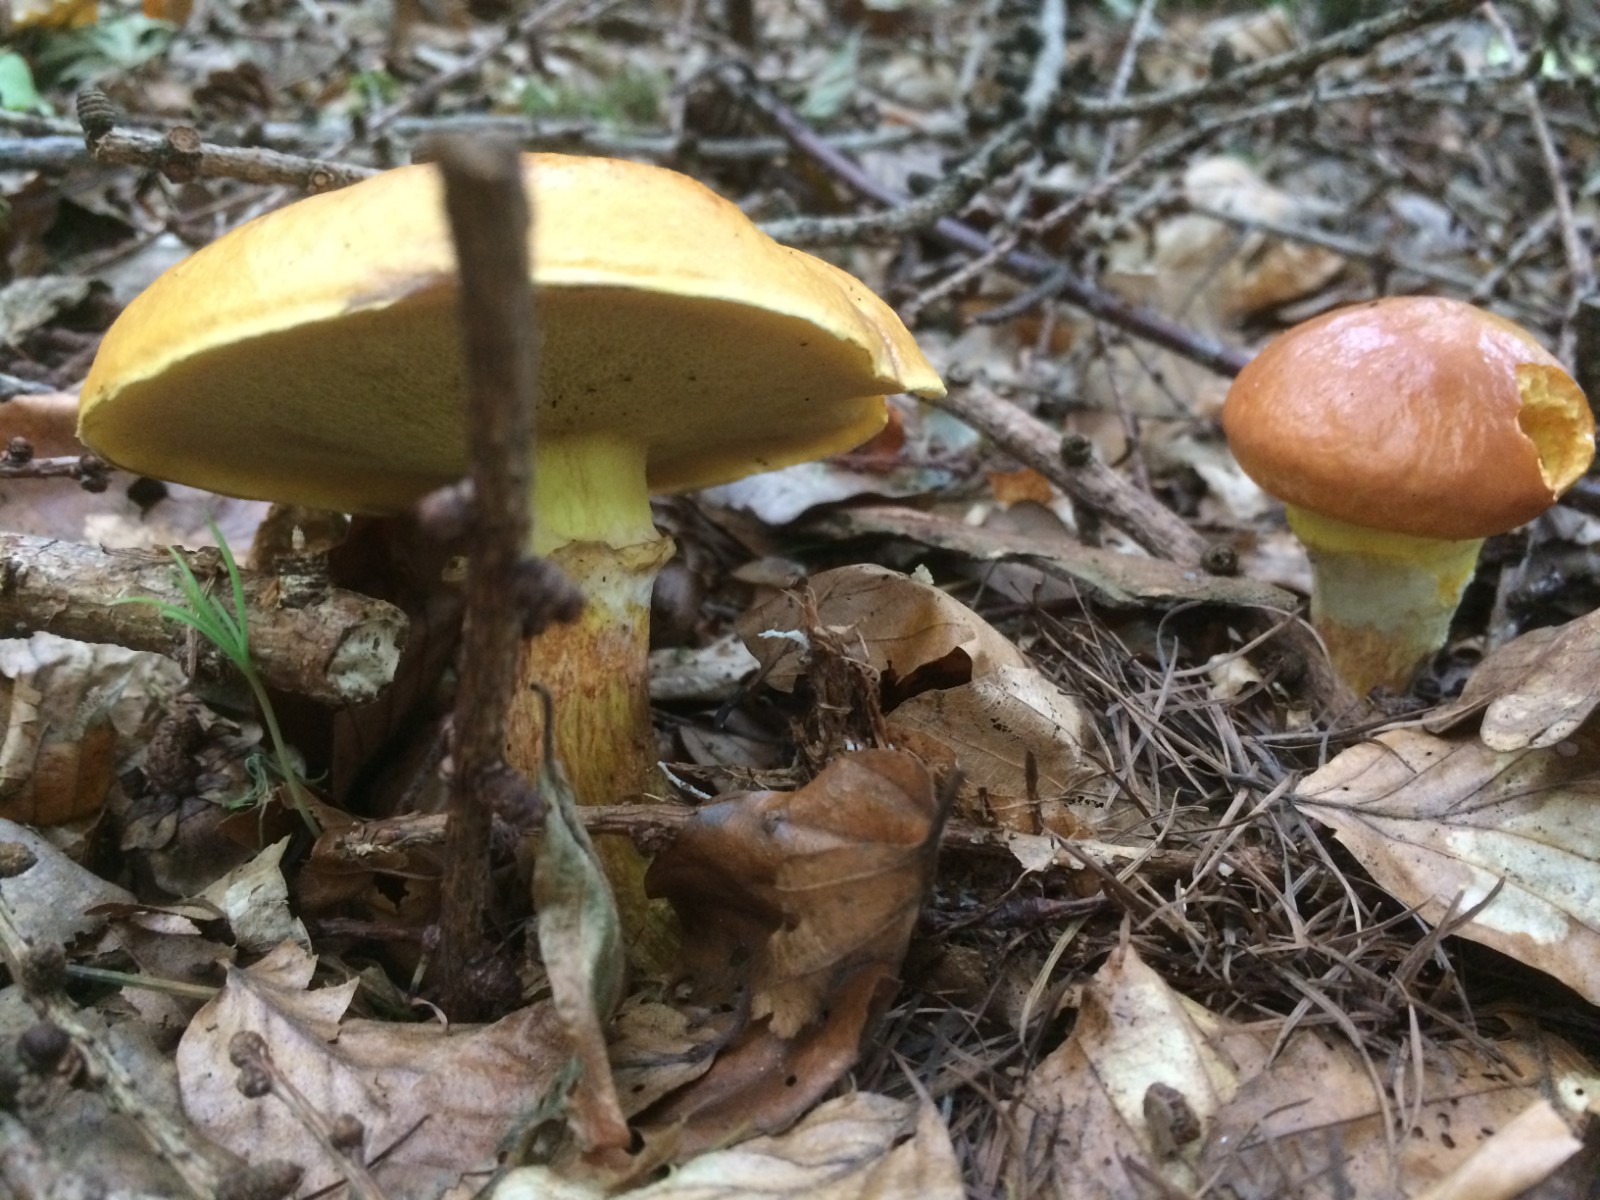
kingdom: Fungi
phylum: Basidiomycota
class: Agaricomycetes
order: Boletales
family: Suillaceae
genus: Suillus
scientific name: Suillus grevillei
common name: lærke-slimrørhat
